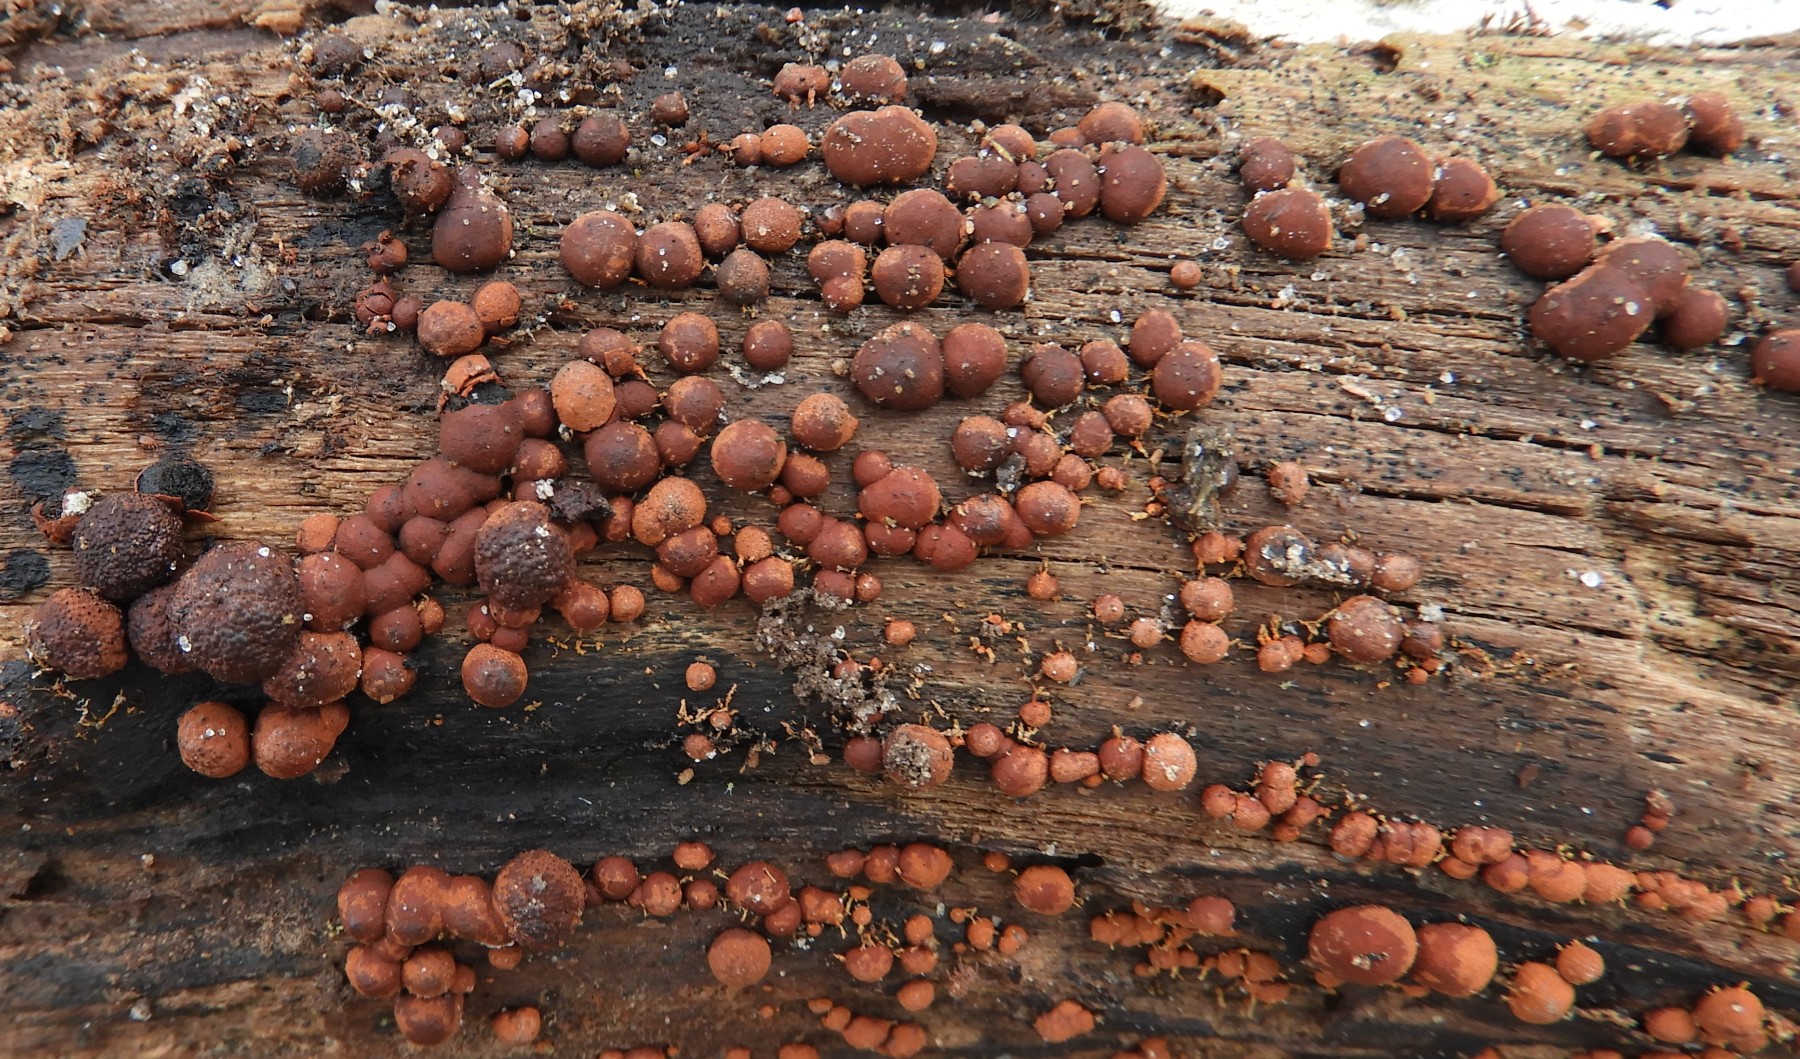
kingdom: Fungi
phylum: Ascomycota
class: Sordariomycetes
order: Xylariales
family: Hypoxylaceae
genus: Hypoxylon
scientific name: Hypoxylon howeanum
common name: halvkugleformet kulbær
